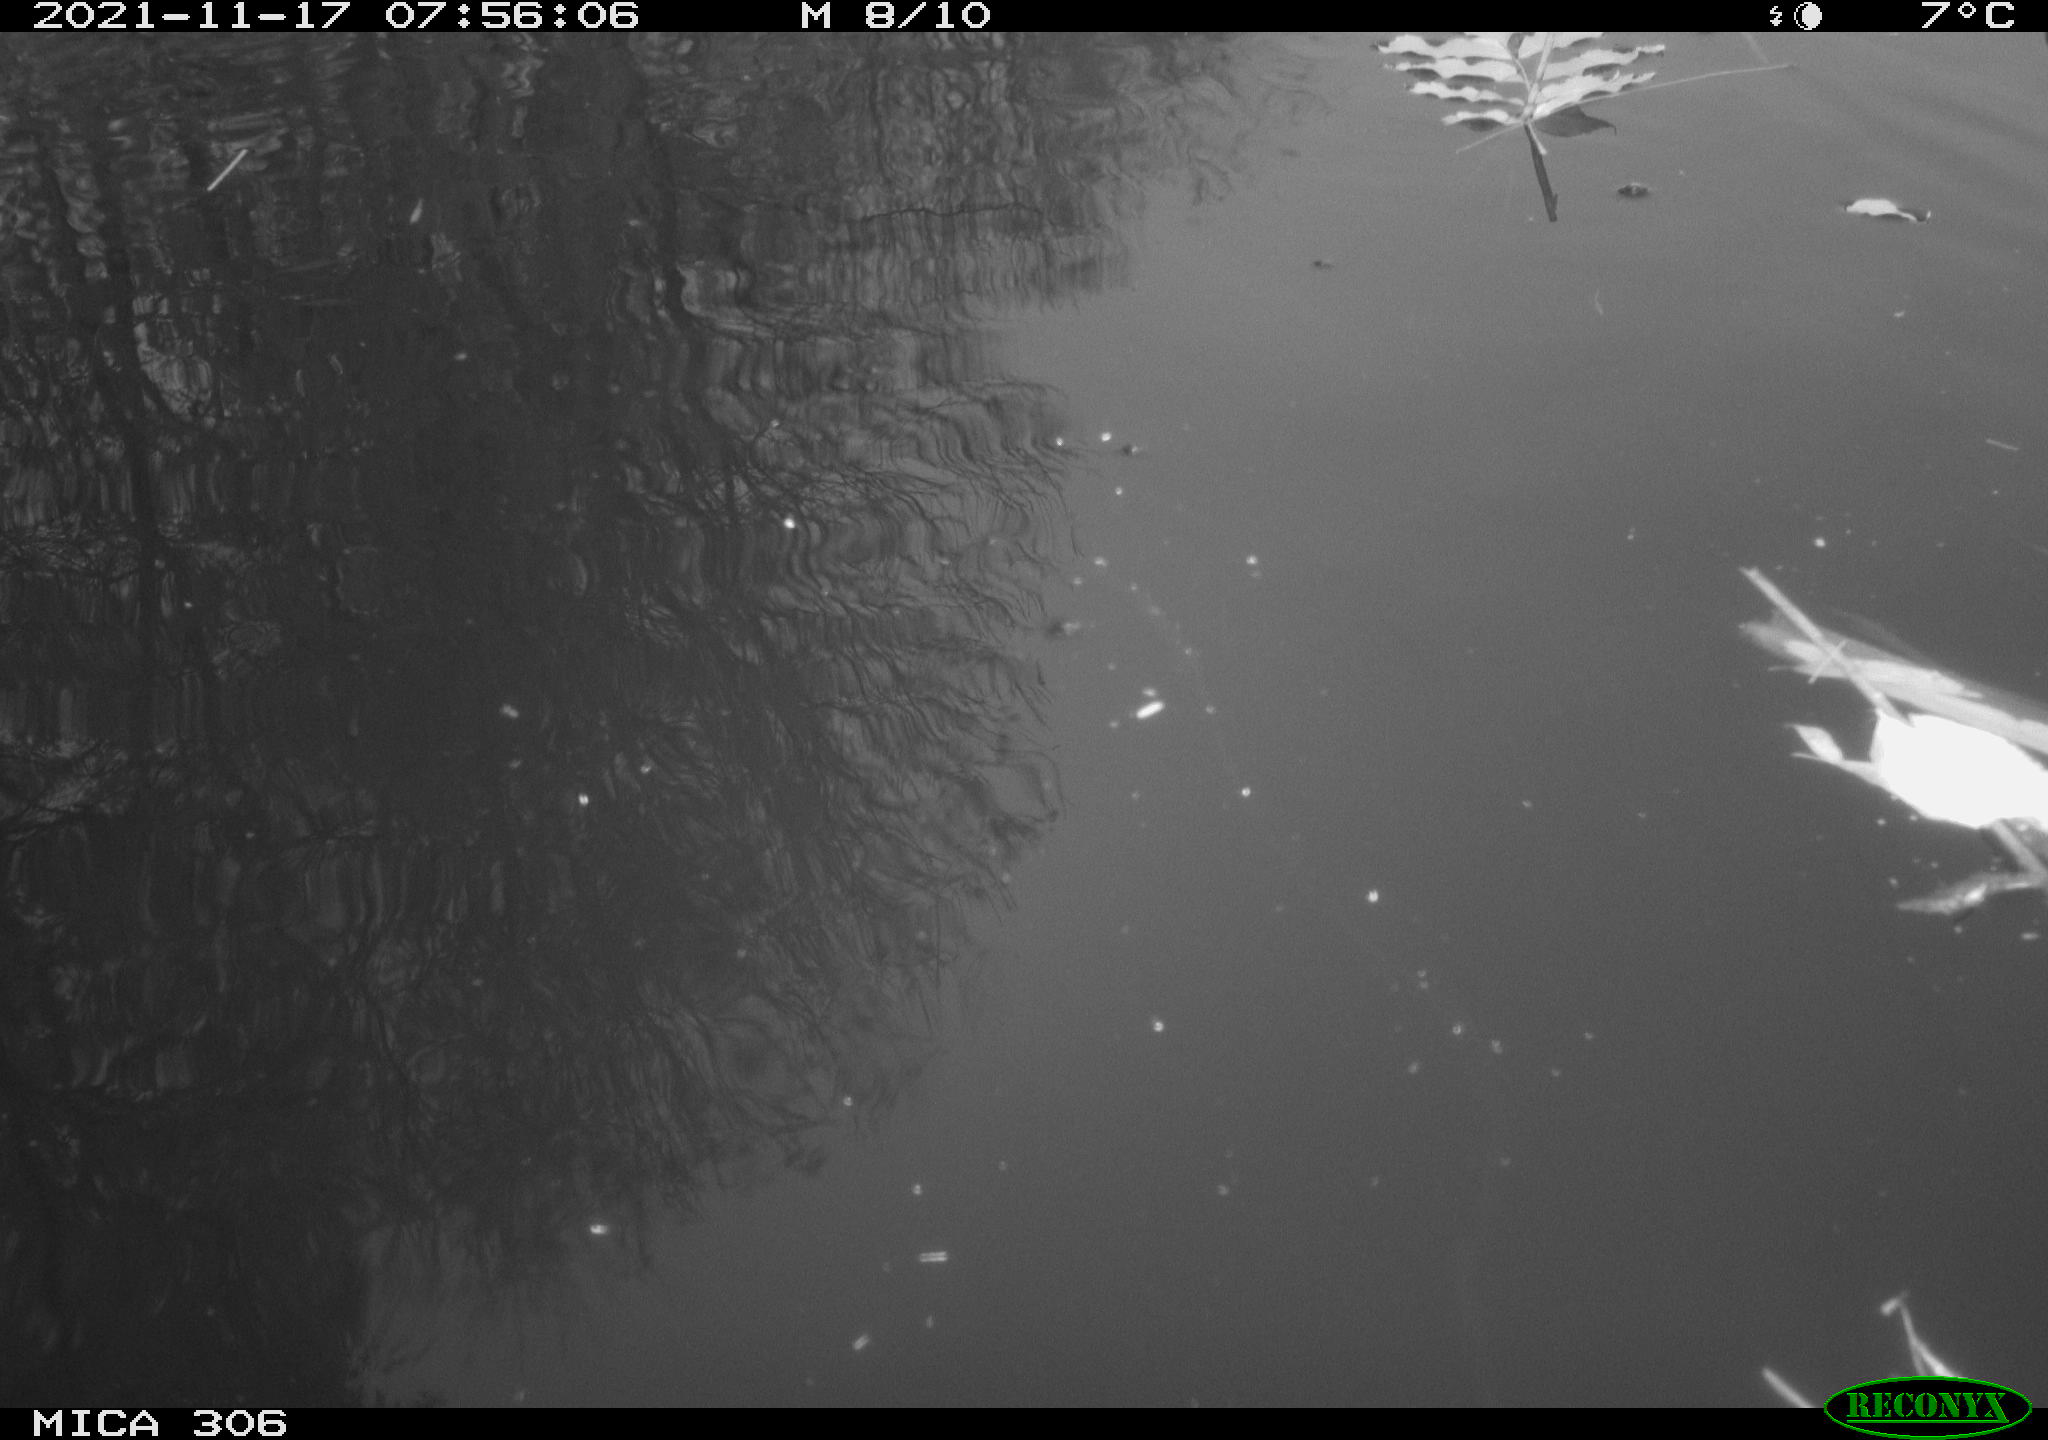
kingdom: Animalia
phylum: Chordata
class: Aves
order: Gruiformes
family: Rallidae
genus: Fulica
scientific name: Fulica atra
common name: Eurasian coot
